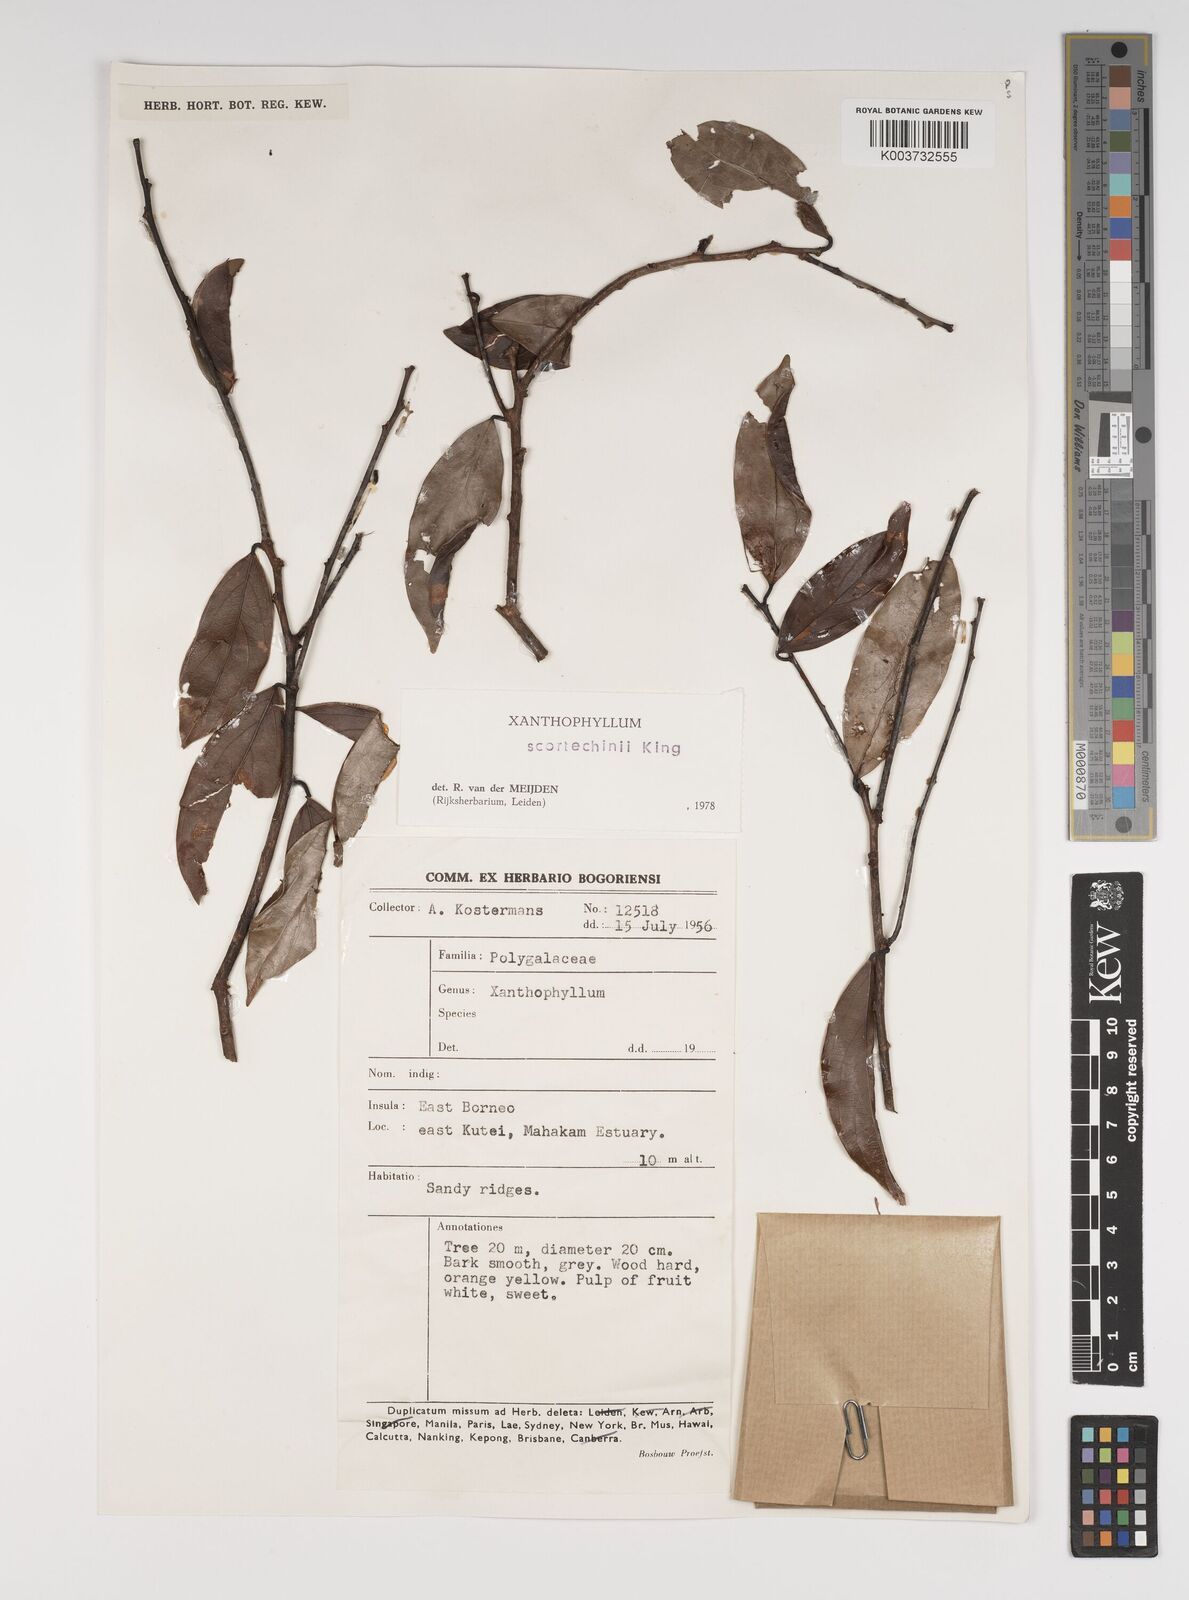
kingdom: Plantae
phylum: Tracheophyta
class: Magnoliopsida
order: Fabales
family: Polygalaceae
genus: Xanthophyllum
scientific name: Xanthophyllum obscurum
